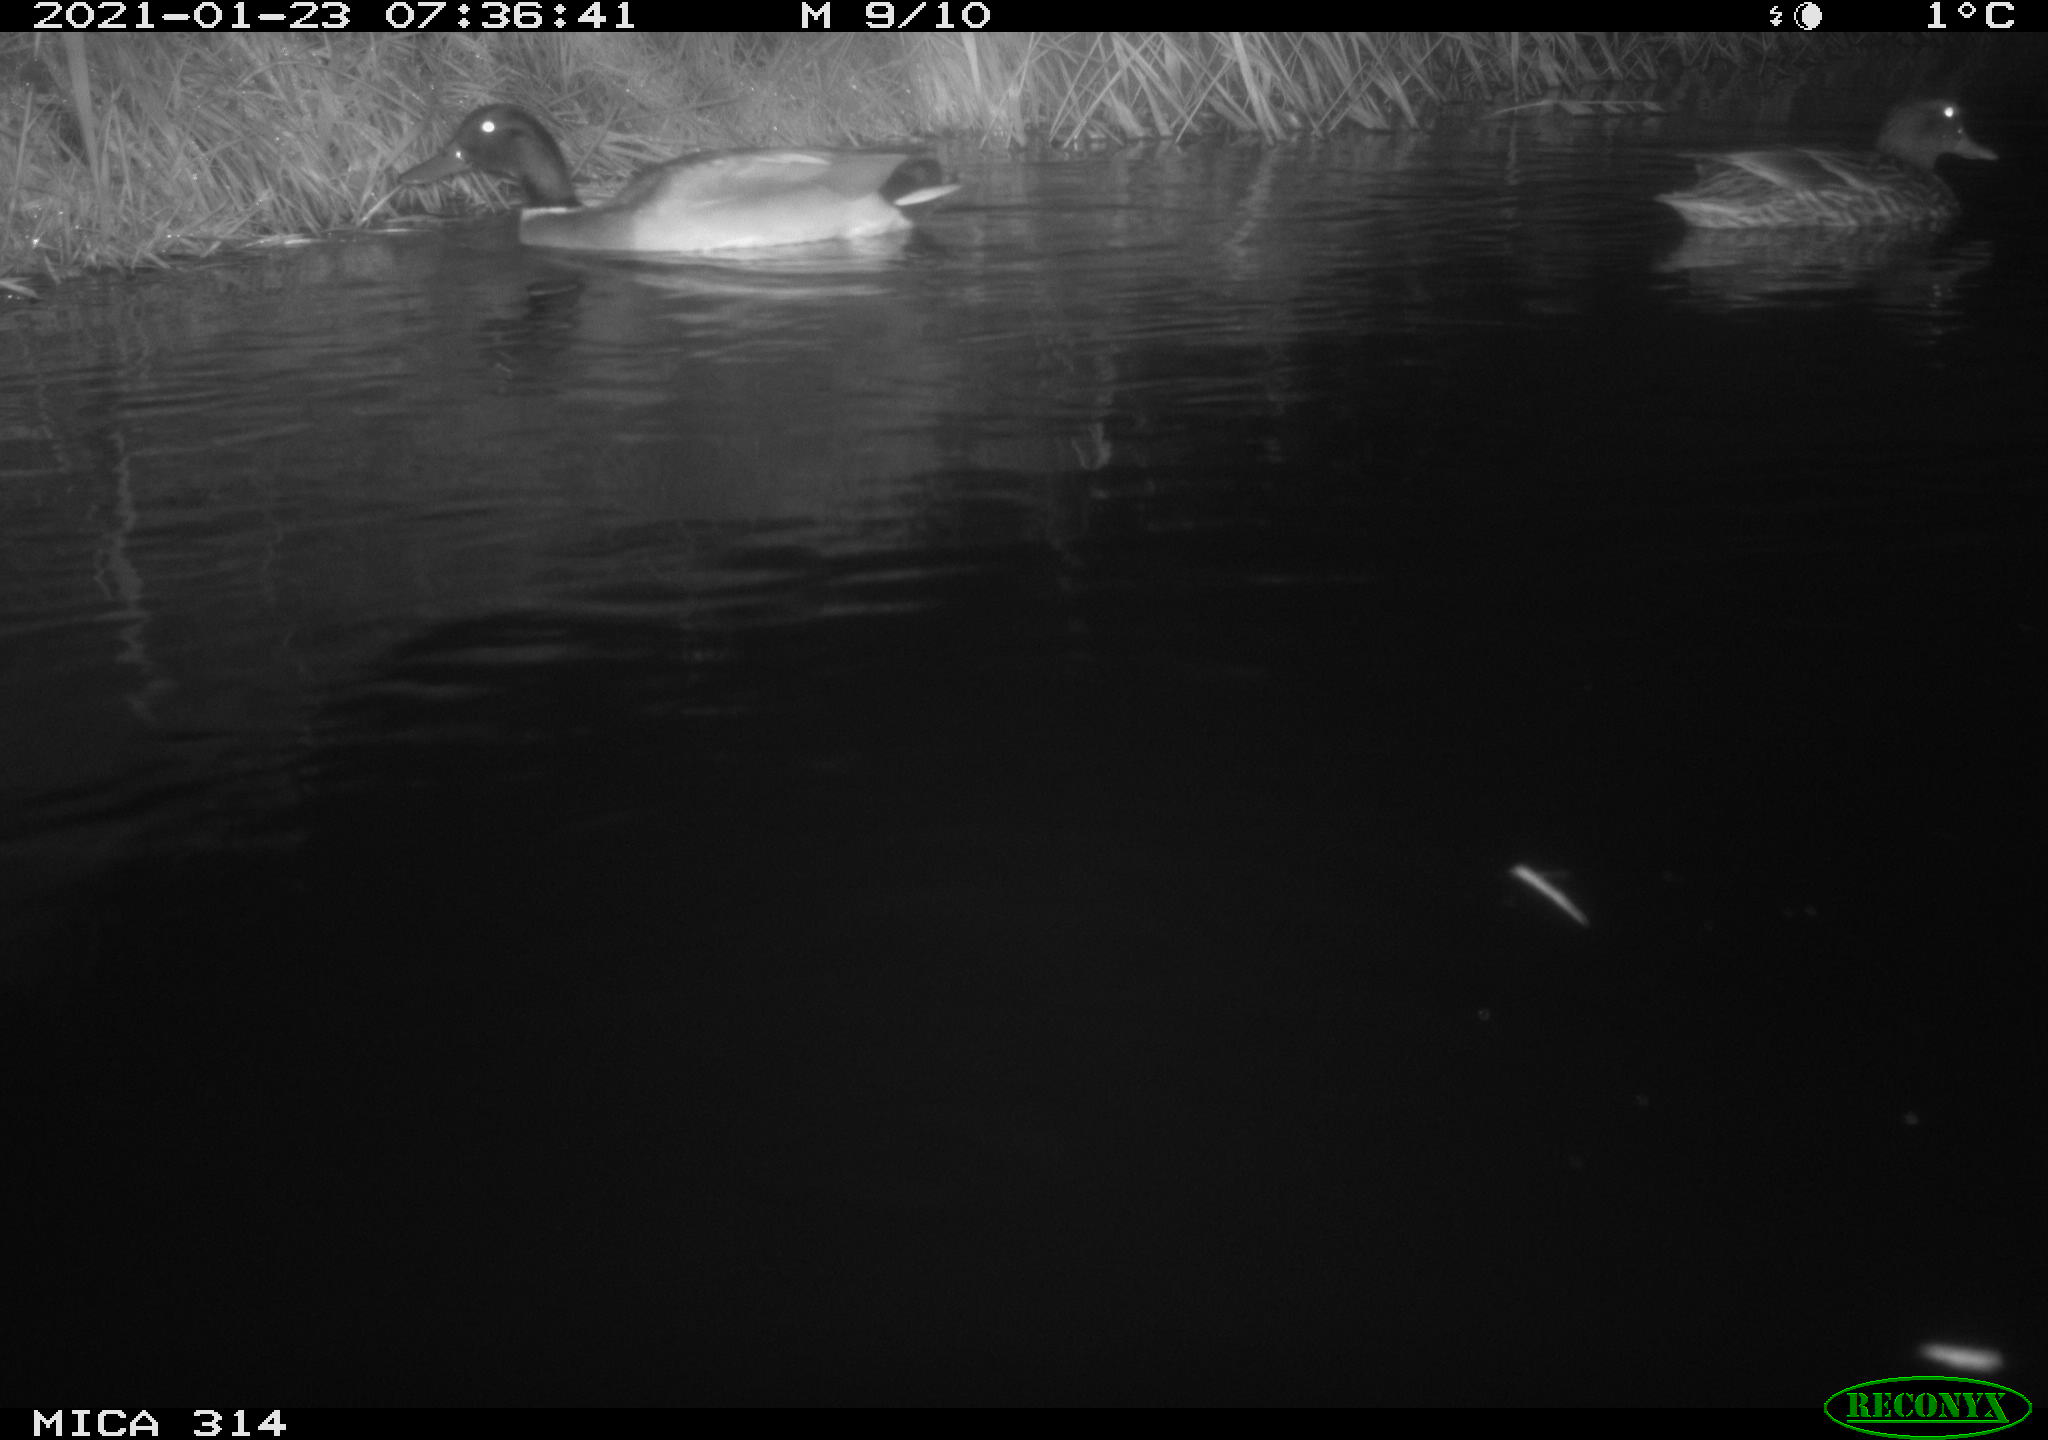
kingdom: Animalia
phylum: Chordata
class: Aves
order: Anseriformes
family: Anatidae
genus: Anas
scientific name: Anas platyrhynchos
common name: Mallard
